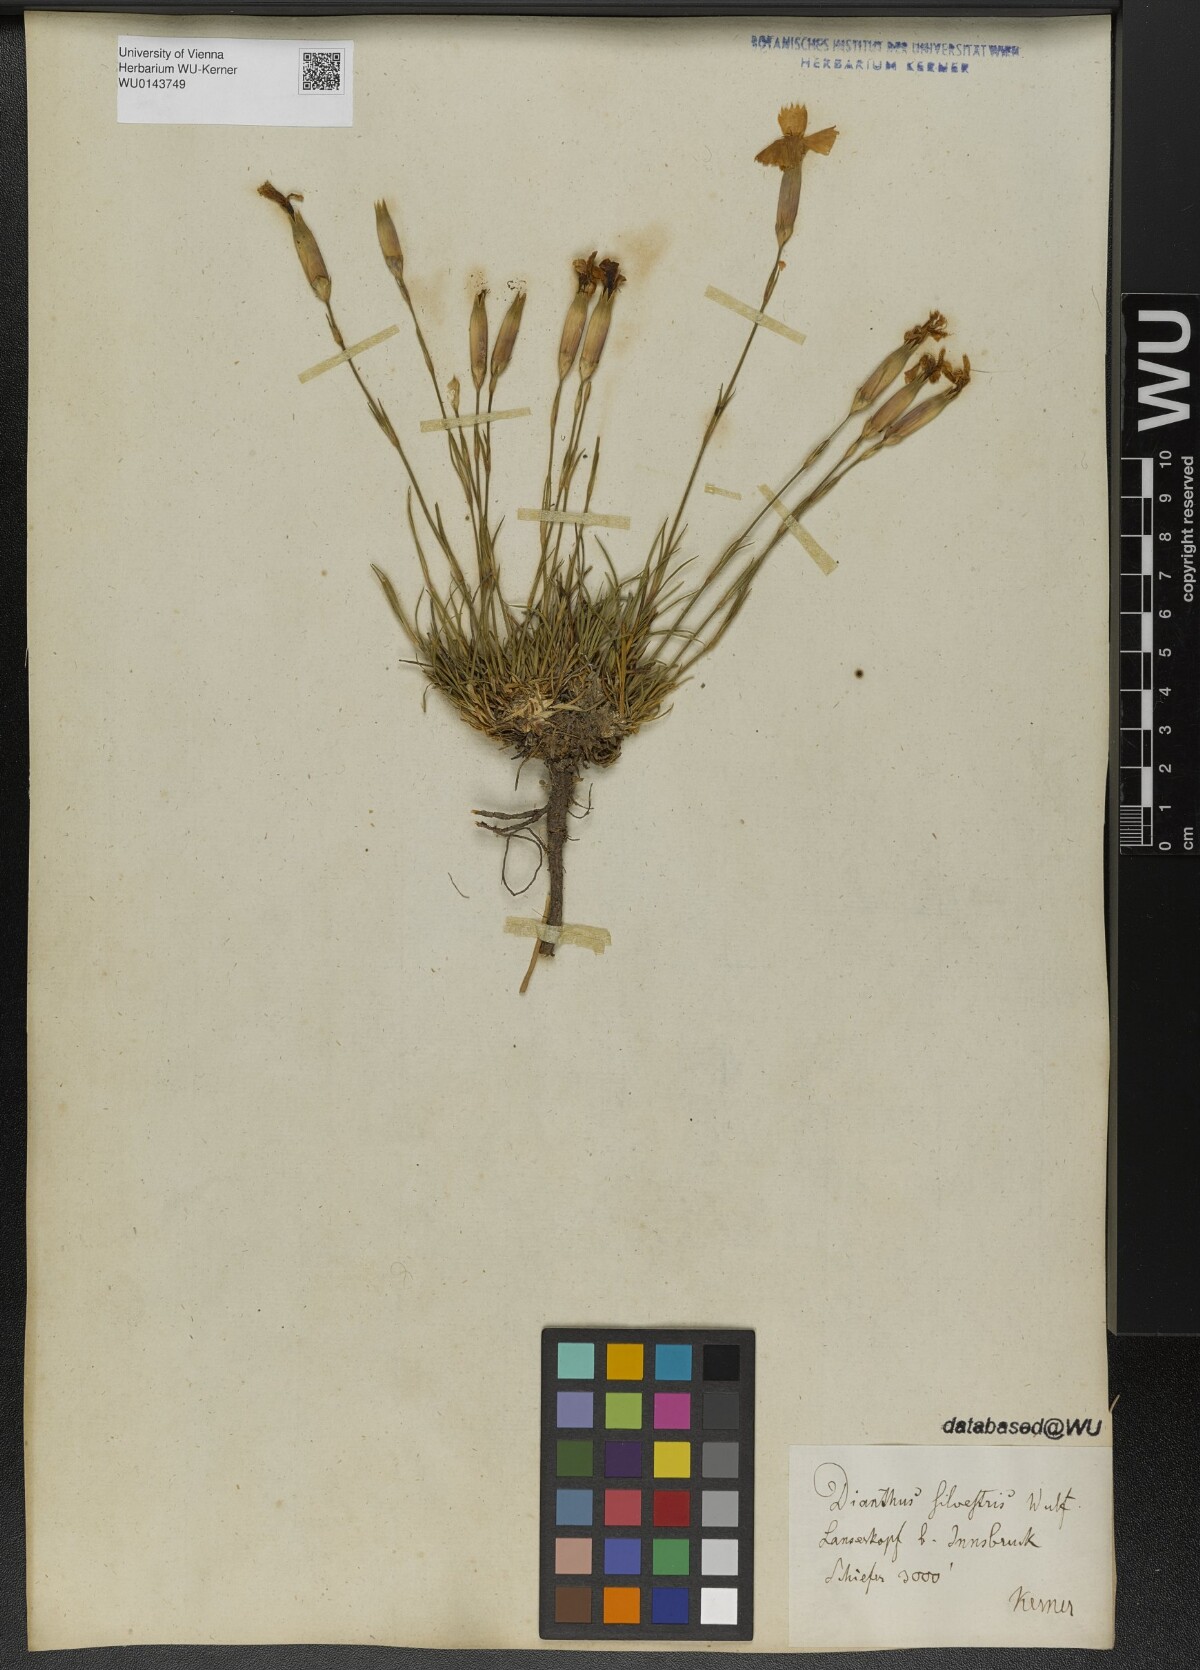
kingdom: Plantae
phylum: Tracheophyta
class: Magnoliopsida
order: Caryophyllales
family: Caryophyllaceae
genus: Dianthus
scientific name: Dianthus sylvestris
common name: Wood pink
